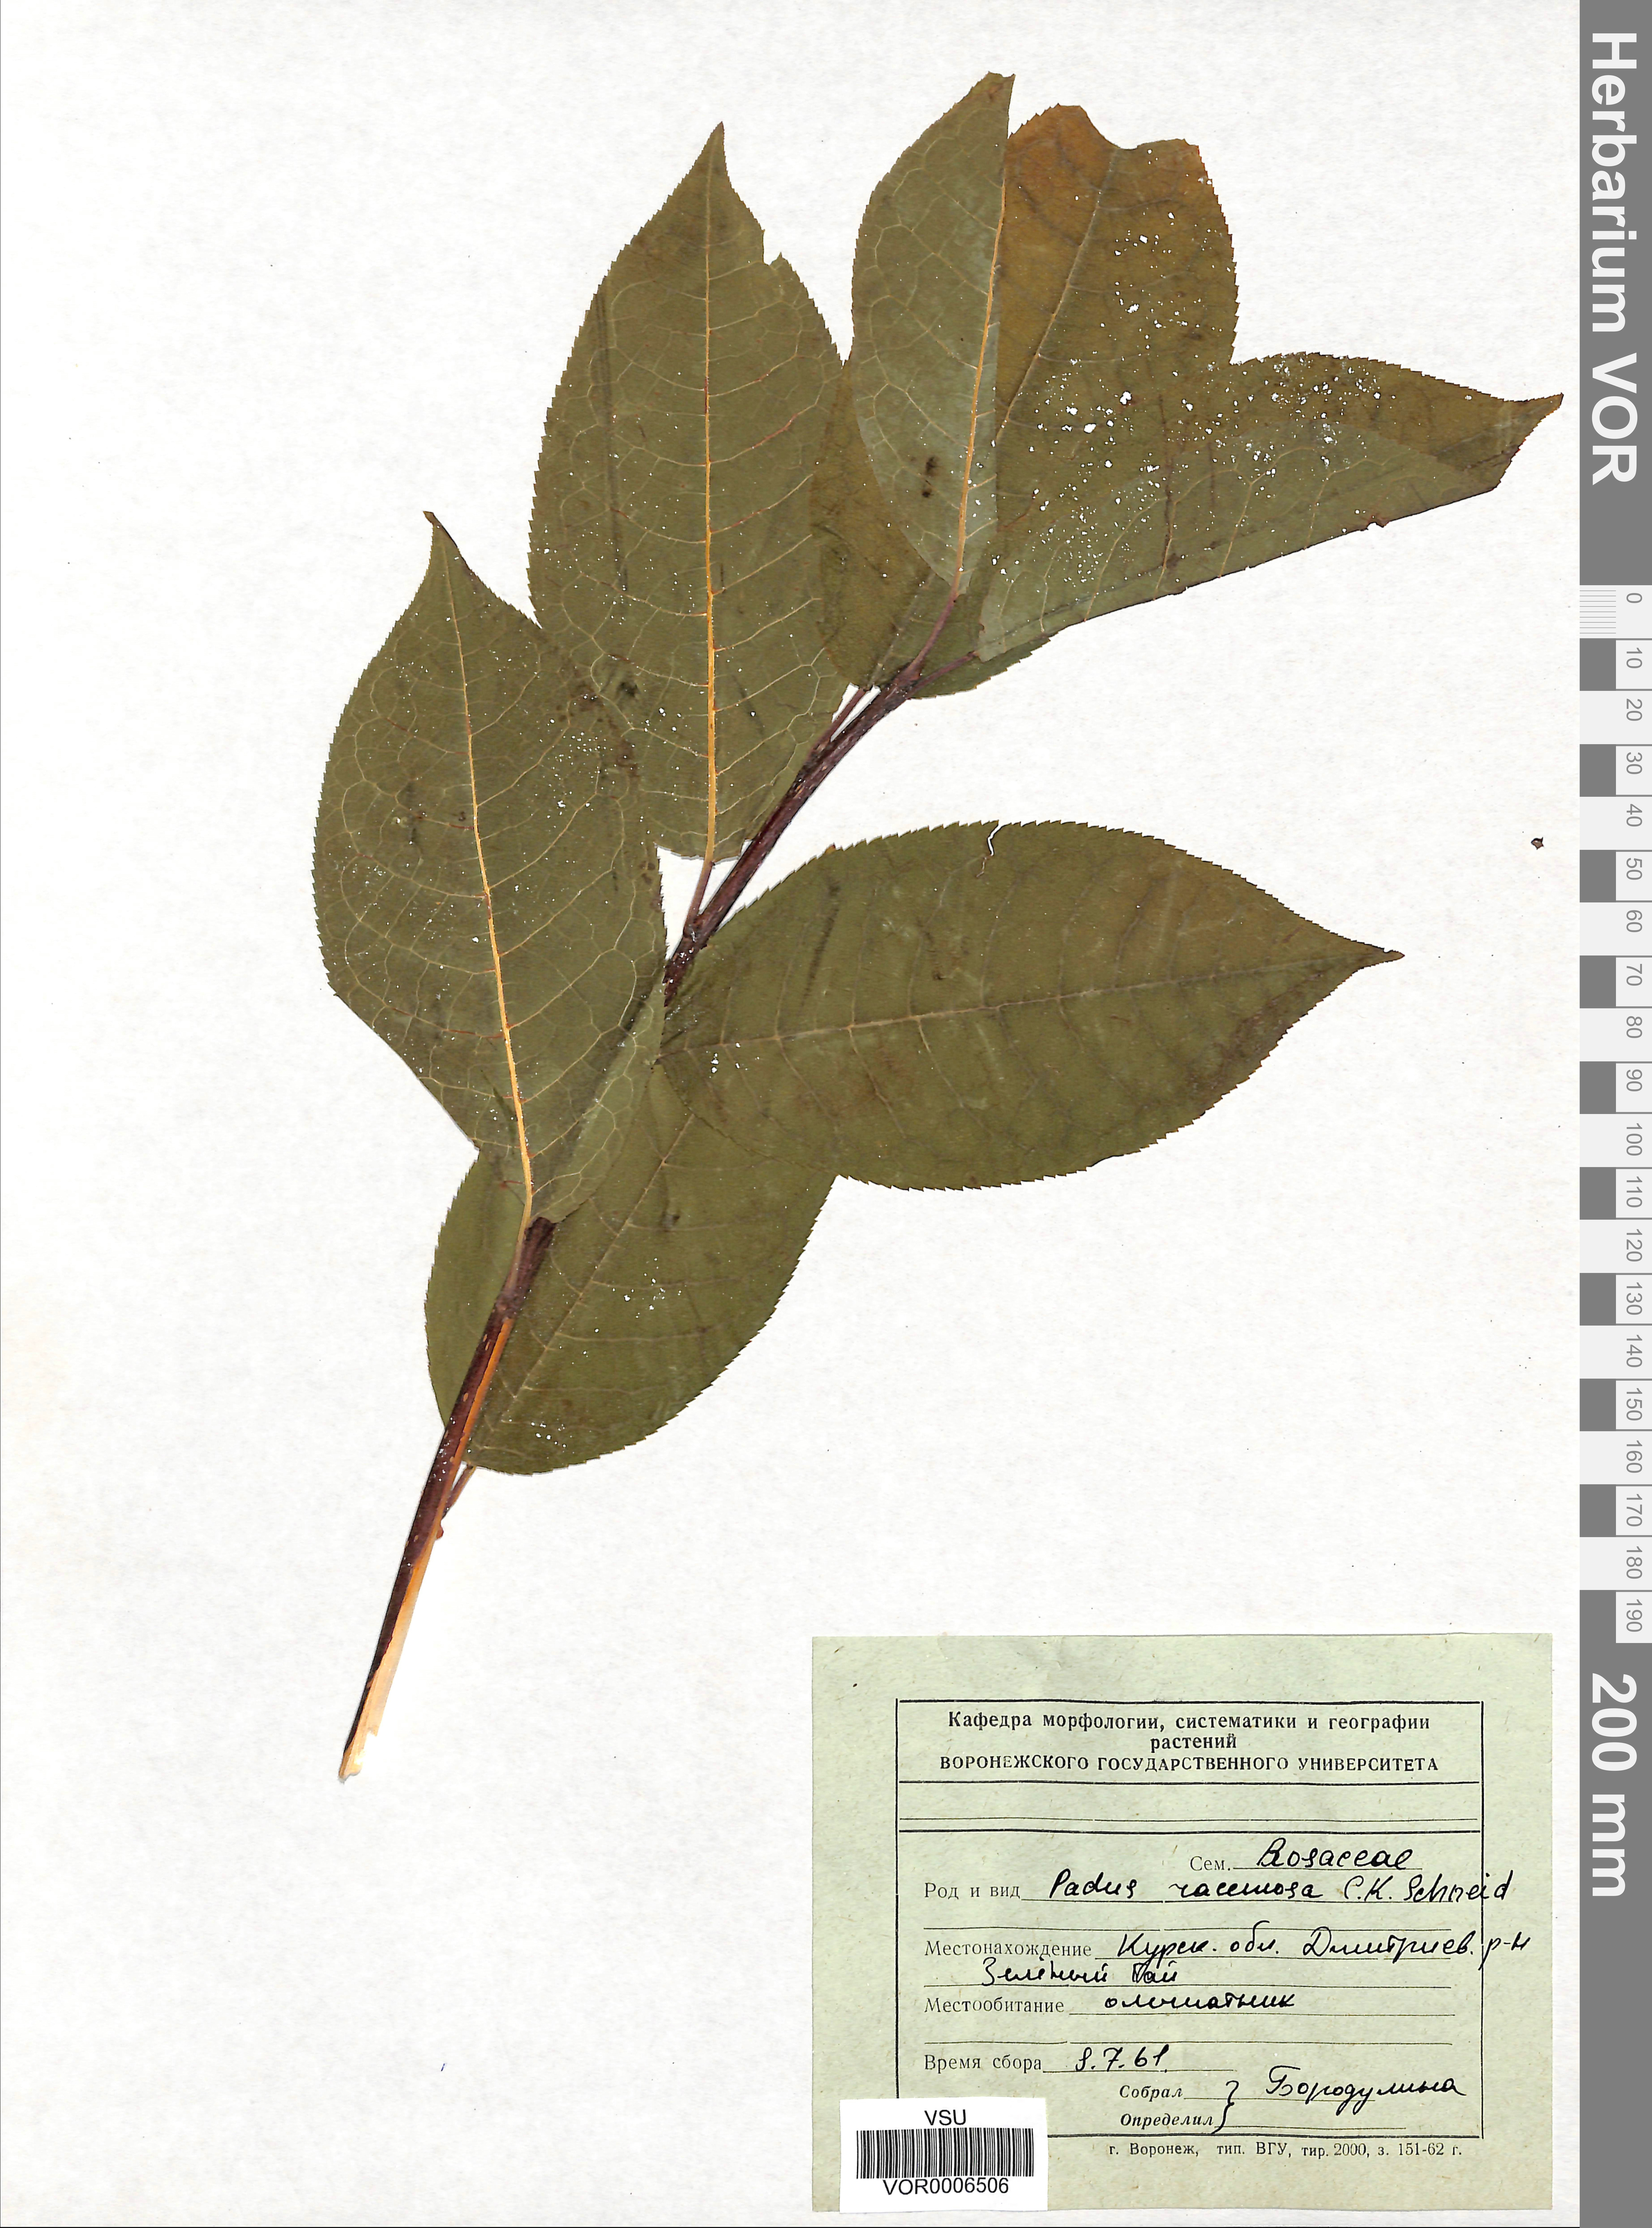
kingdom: Plantae
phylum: Tracheophyta
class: Magnoliopsida
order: Rosales
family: Rosaceae
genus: Prunus
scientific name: Prunus padus
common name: Bird cherry
